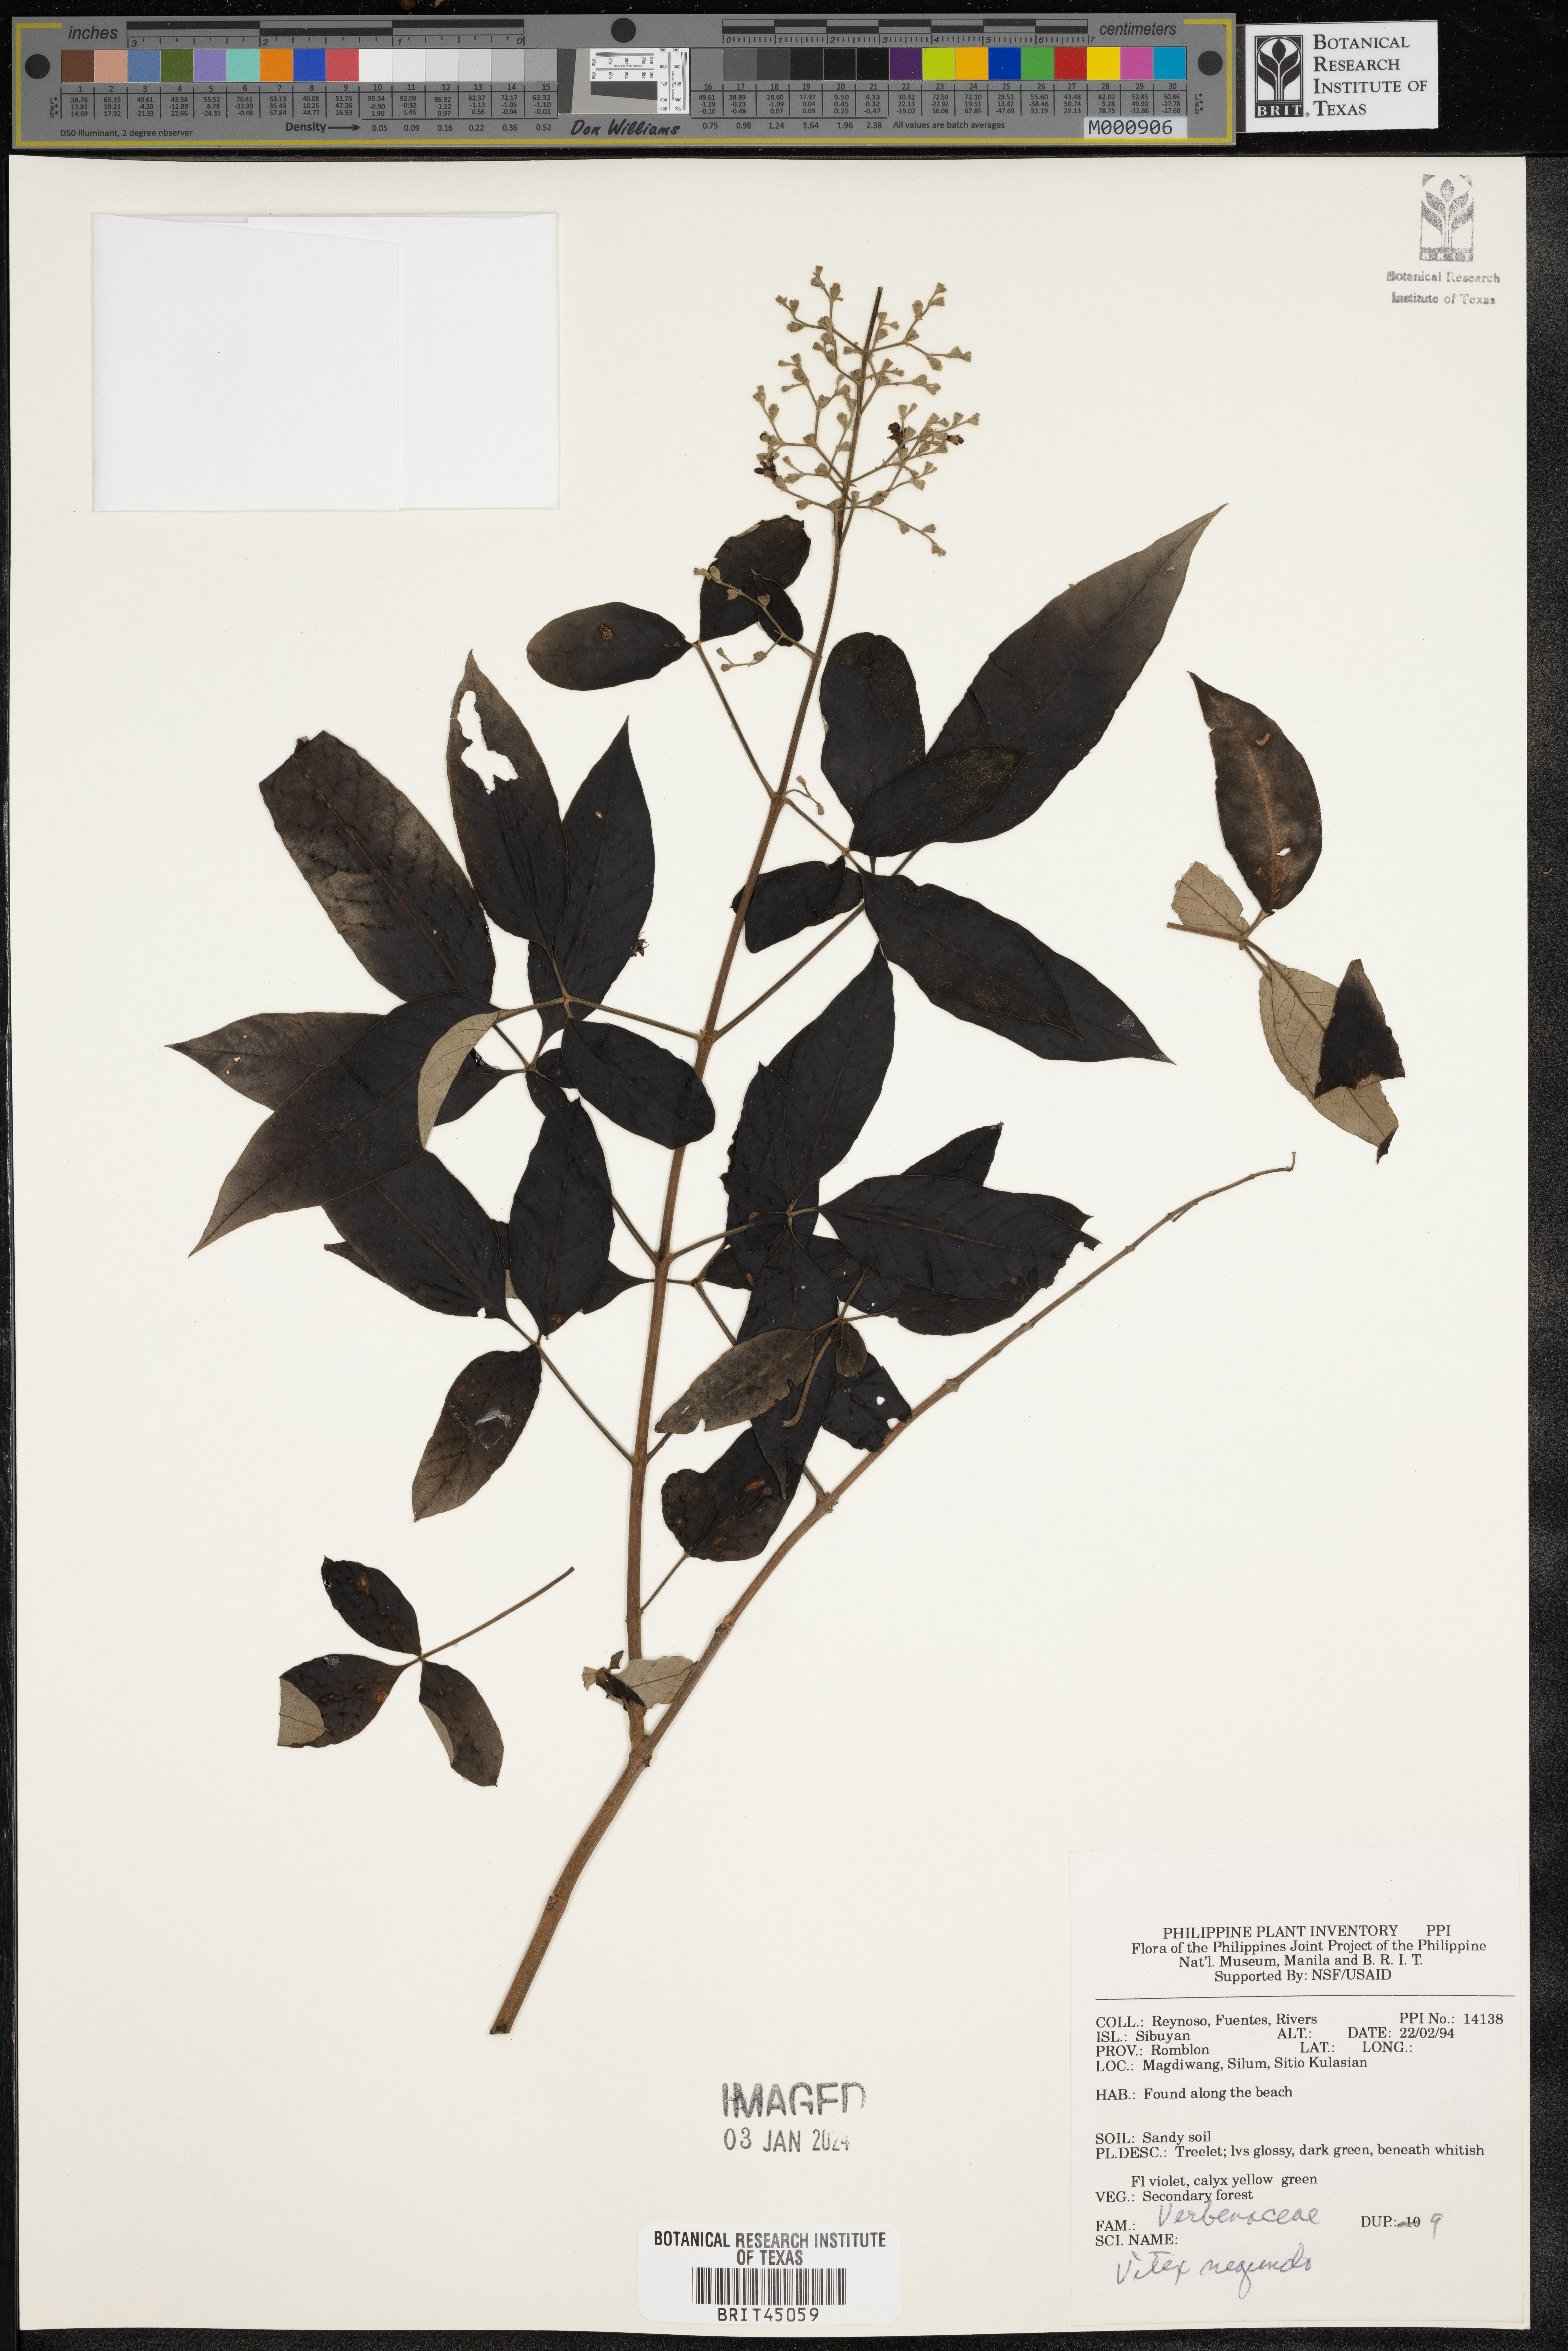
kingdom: Plantae
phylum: Tracheophyta
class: Magnoliopsida
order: Lamiales
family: Lamiaceae
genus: Vitex
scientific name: Vitex negundo
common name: Chinese chastetree
